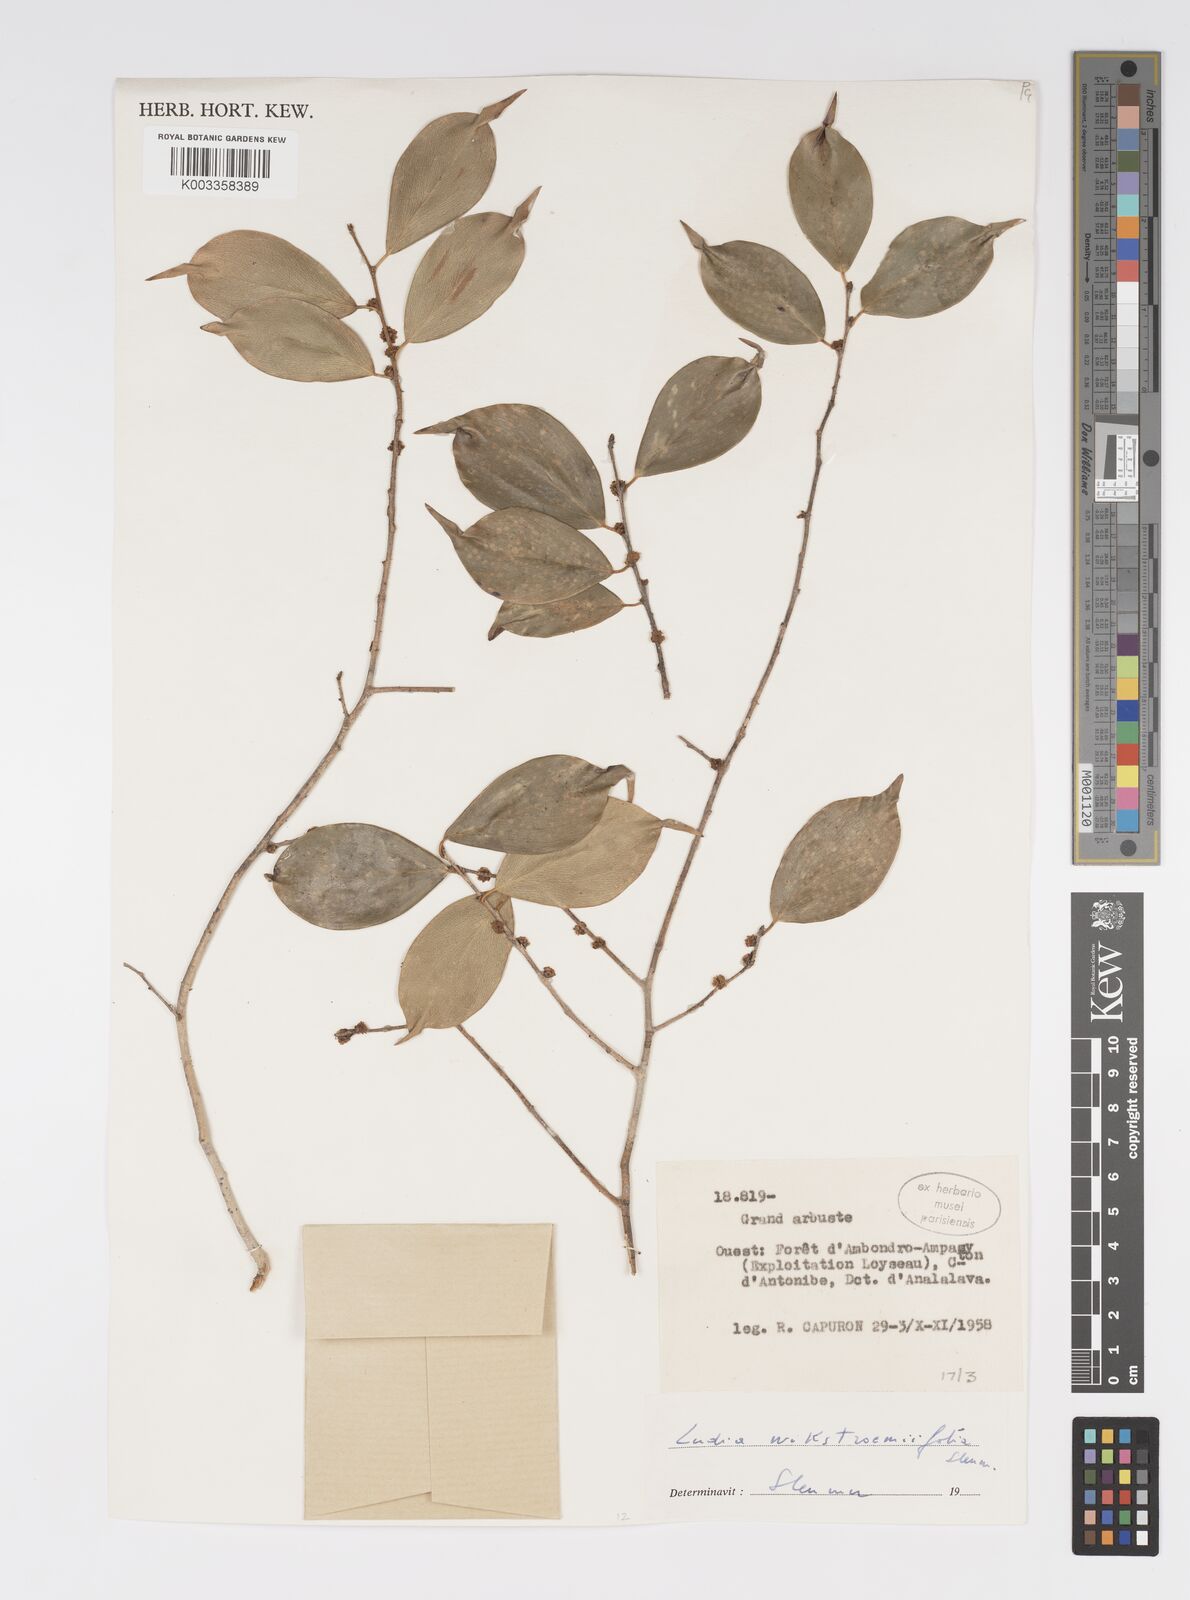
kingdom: Plantae
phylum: Tracheophyta
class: Magnoliopsida
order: Malpighiales
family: Salicaceae
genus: Ludia
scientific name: Ludia wikstroemiifolia
